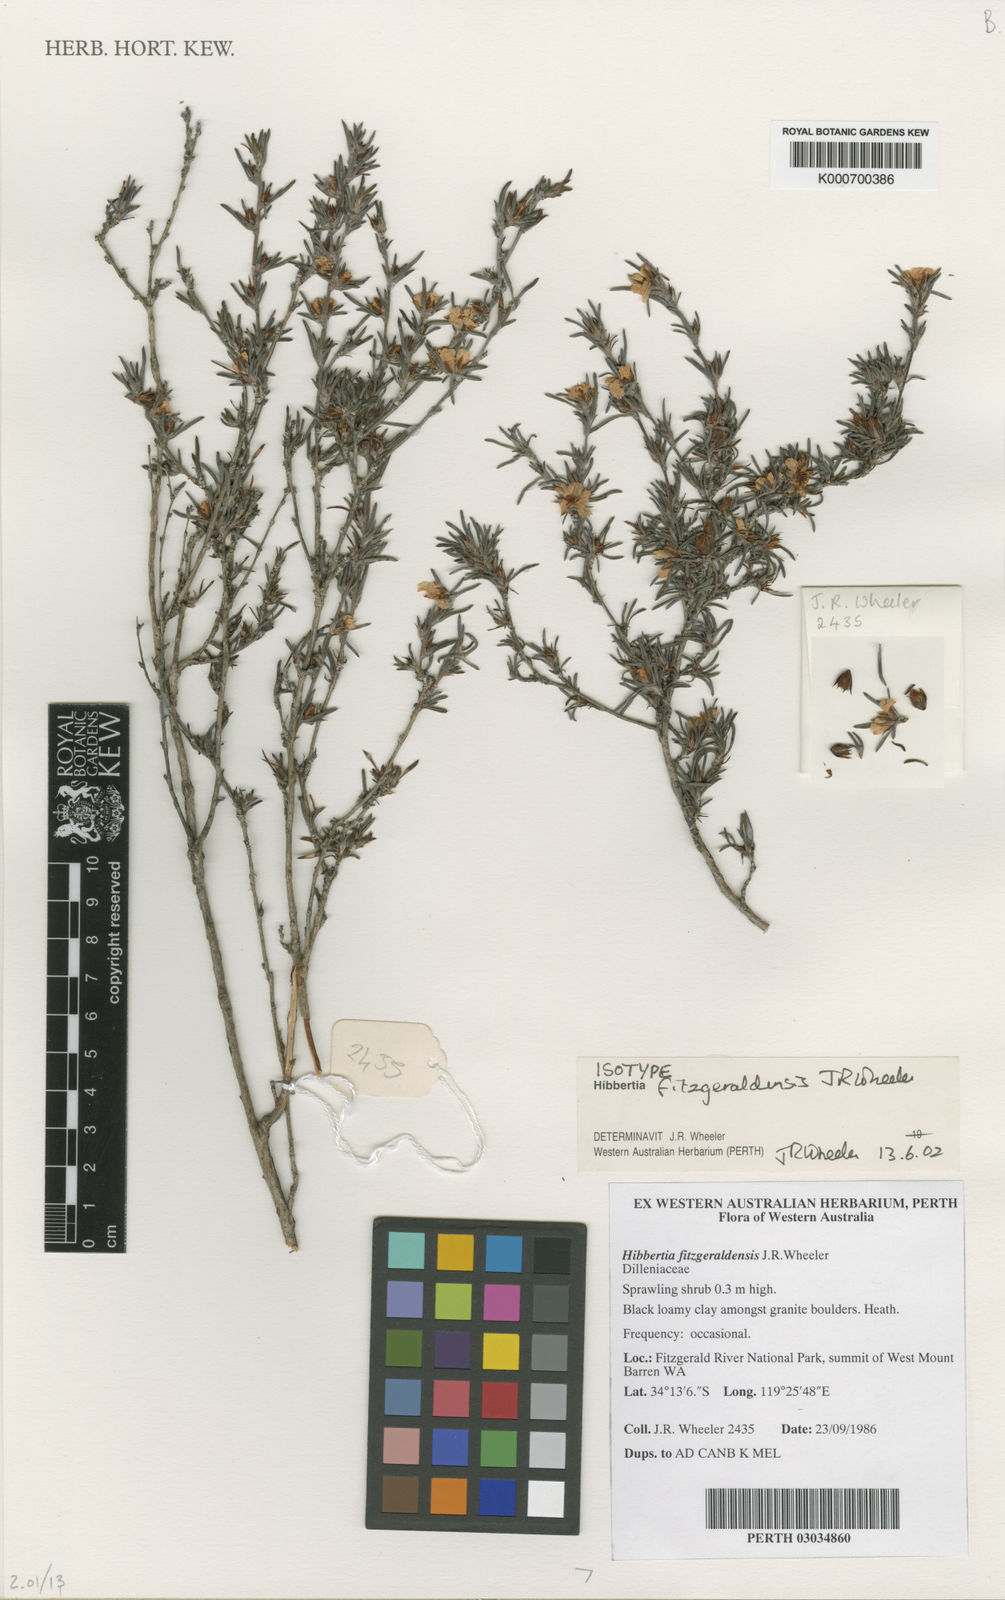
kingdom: Plantae
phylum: Tracheophyta
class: Magnoliopsida
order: Dilleniales
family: Dilleniaceae
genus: Hibbertia
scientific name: Hibbertia fitzgeraldensis
